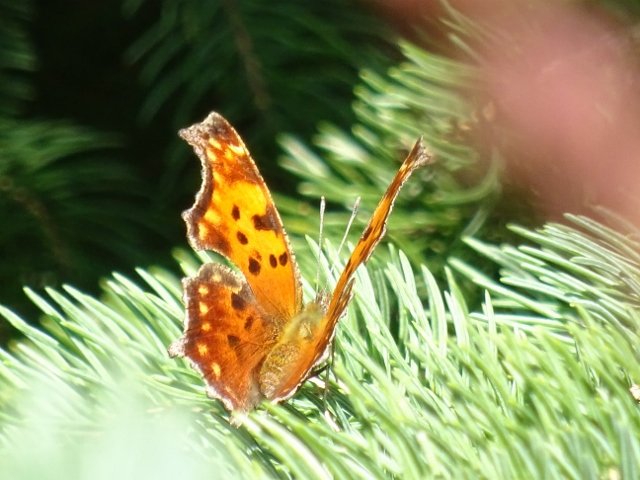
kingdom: Animalia
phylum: Arthropoda
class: Insecta
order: Lepidoptera
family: Nymphalidae
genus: Polygonia
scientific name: Polygonia comma
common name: Eastern Comma
